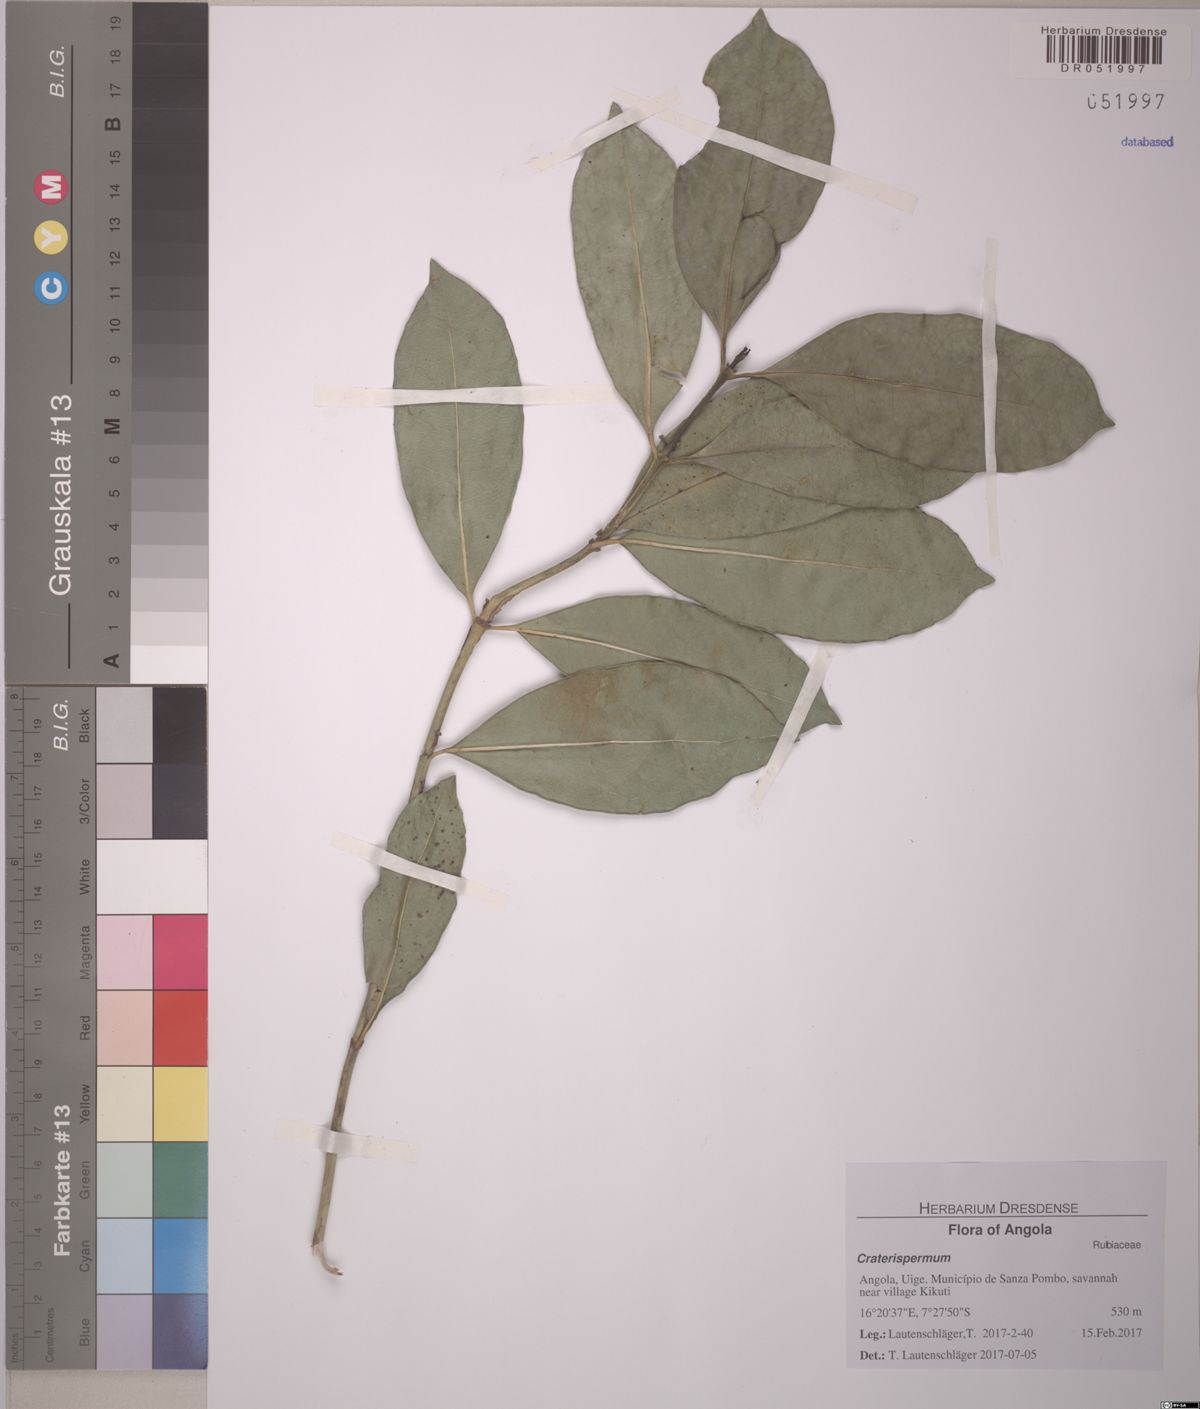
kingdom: Plantae
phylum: Tracheophyta
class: Magnoliopsida
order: Gentianales
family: Rubiaceae
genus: Craterispermum
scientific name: Craterispermum
